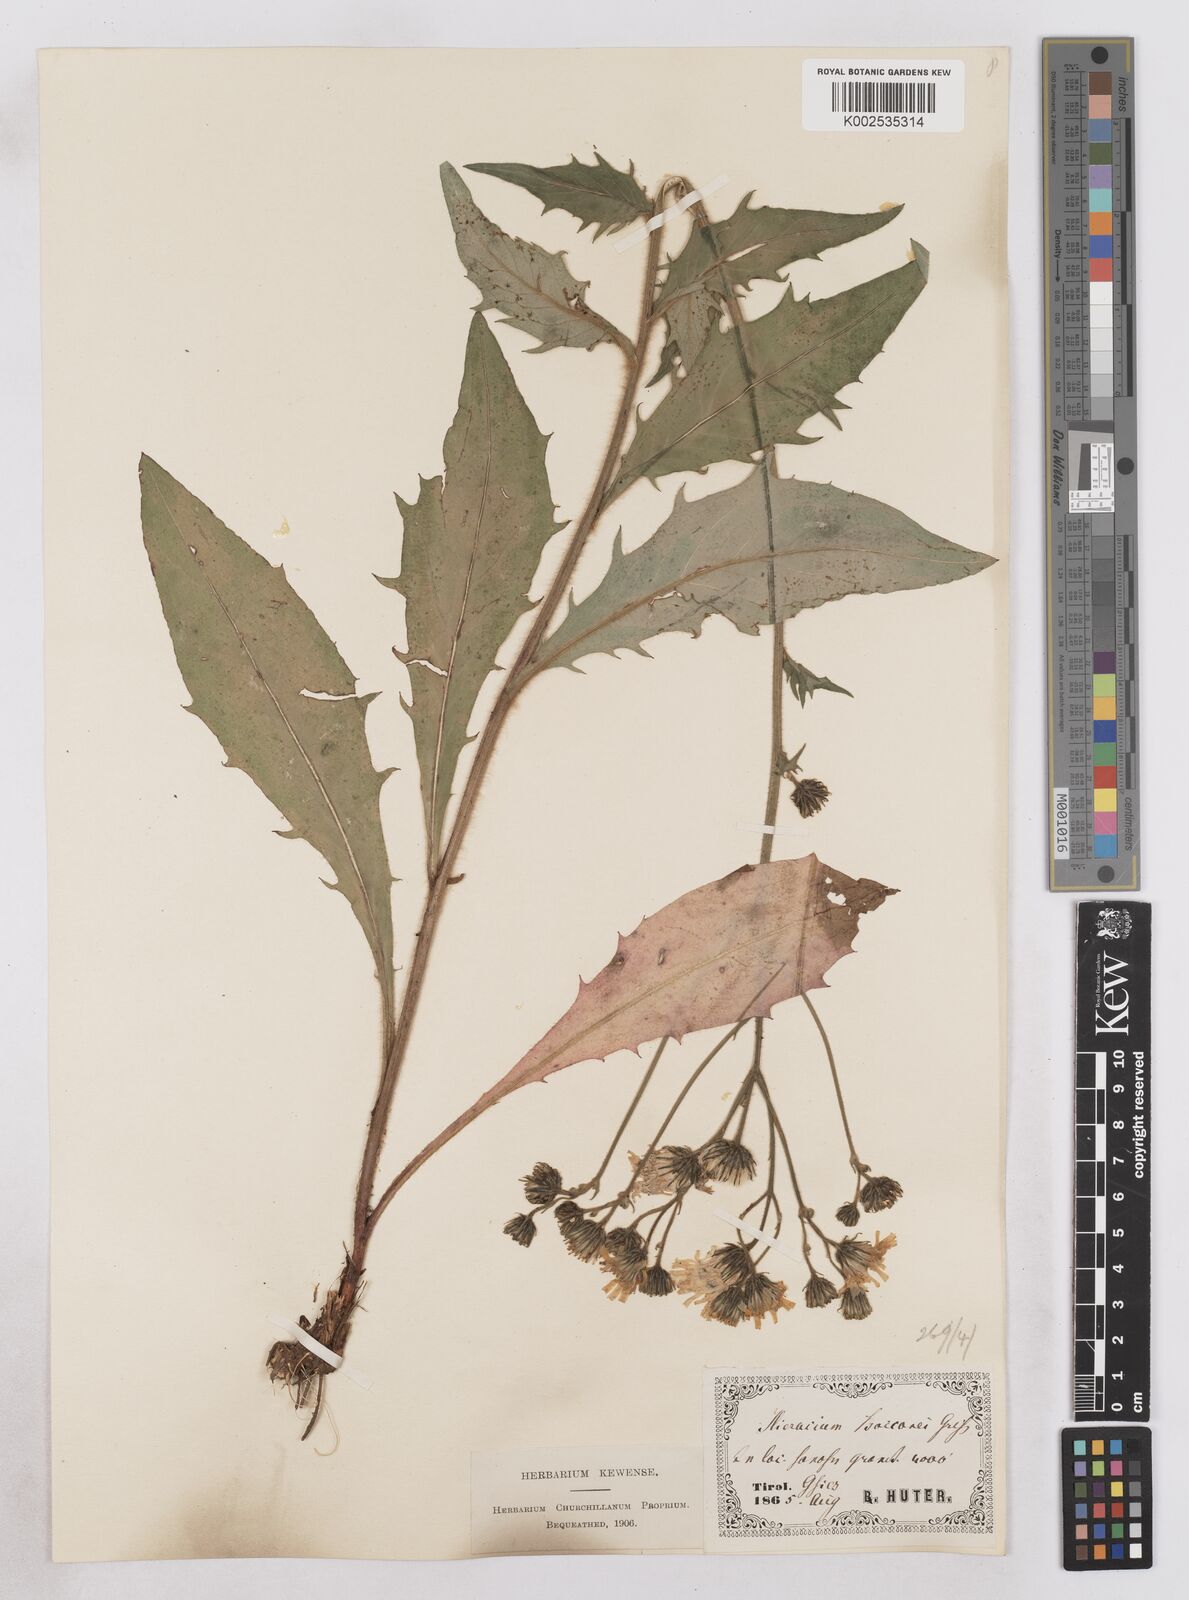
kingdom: Plantae
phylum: Tracheophyta
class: Magnoliopsida
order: Asterales
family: Asteraceae
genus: Hieracium
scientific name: Hieracium simia
